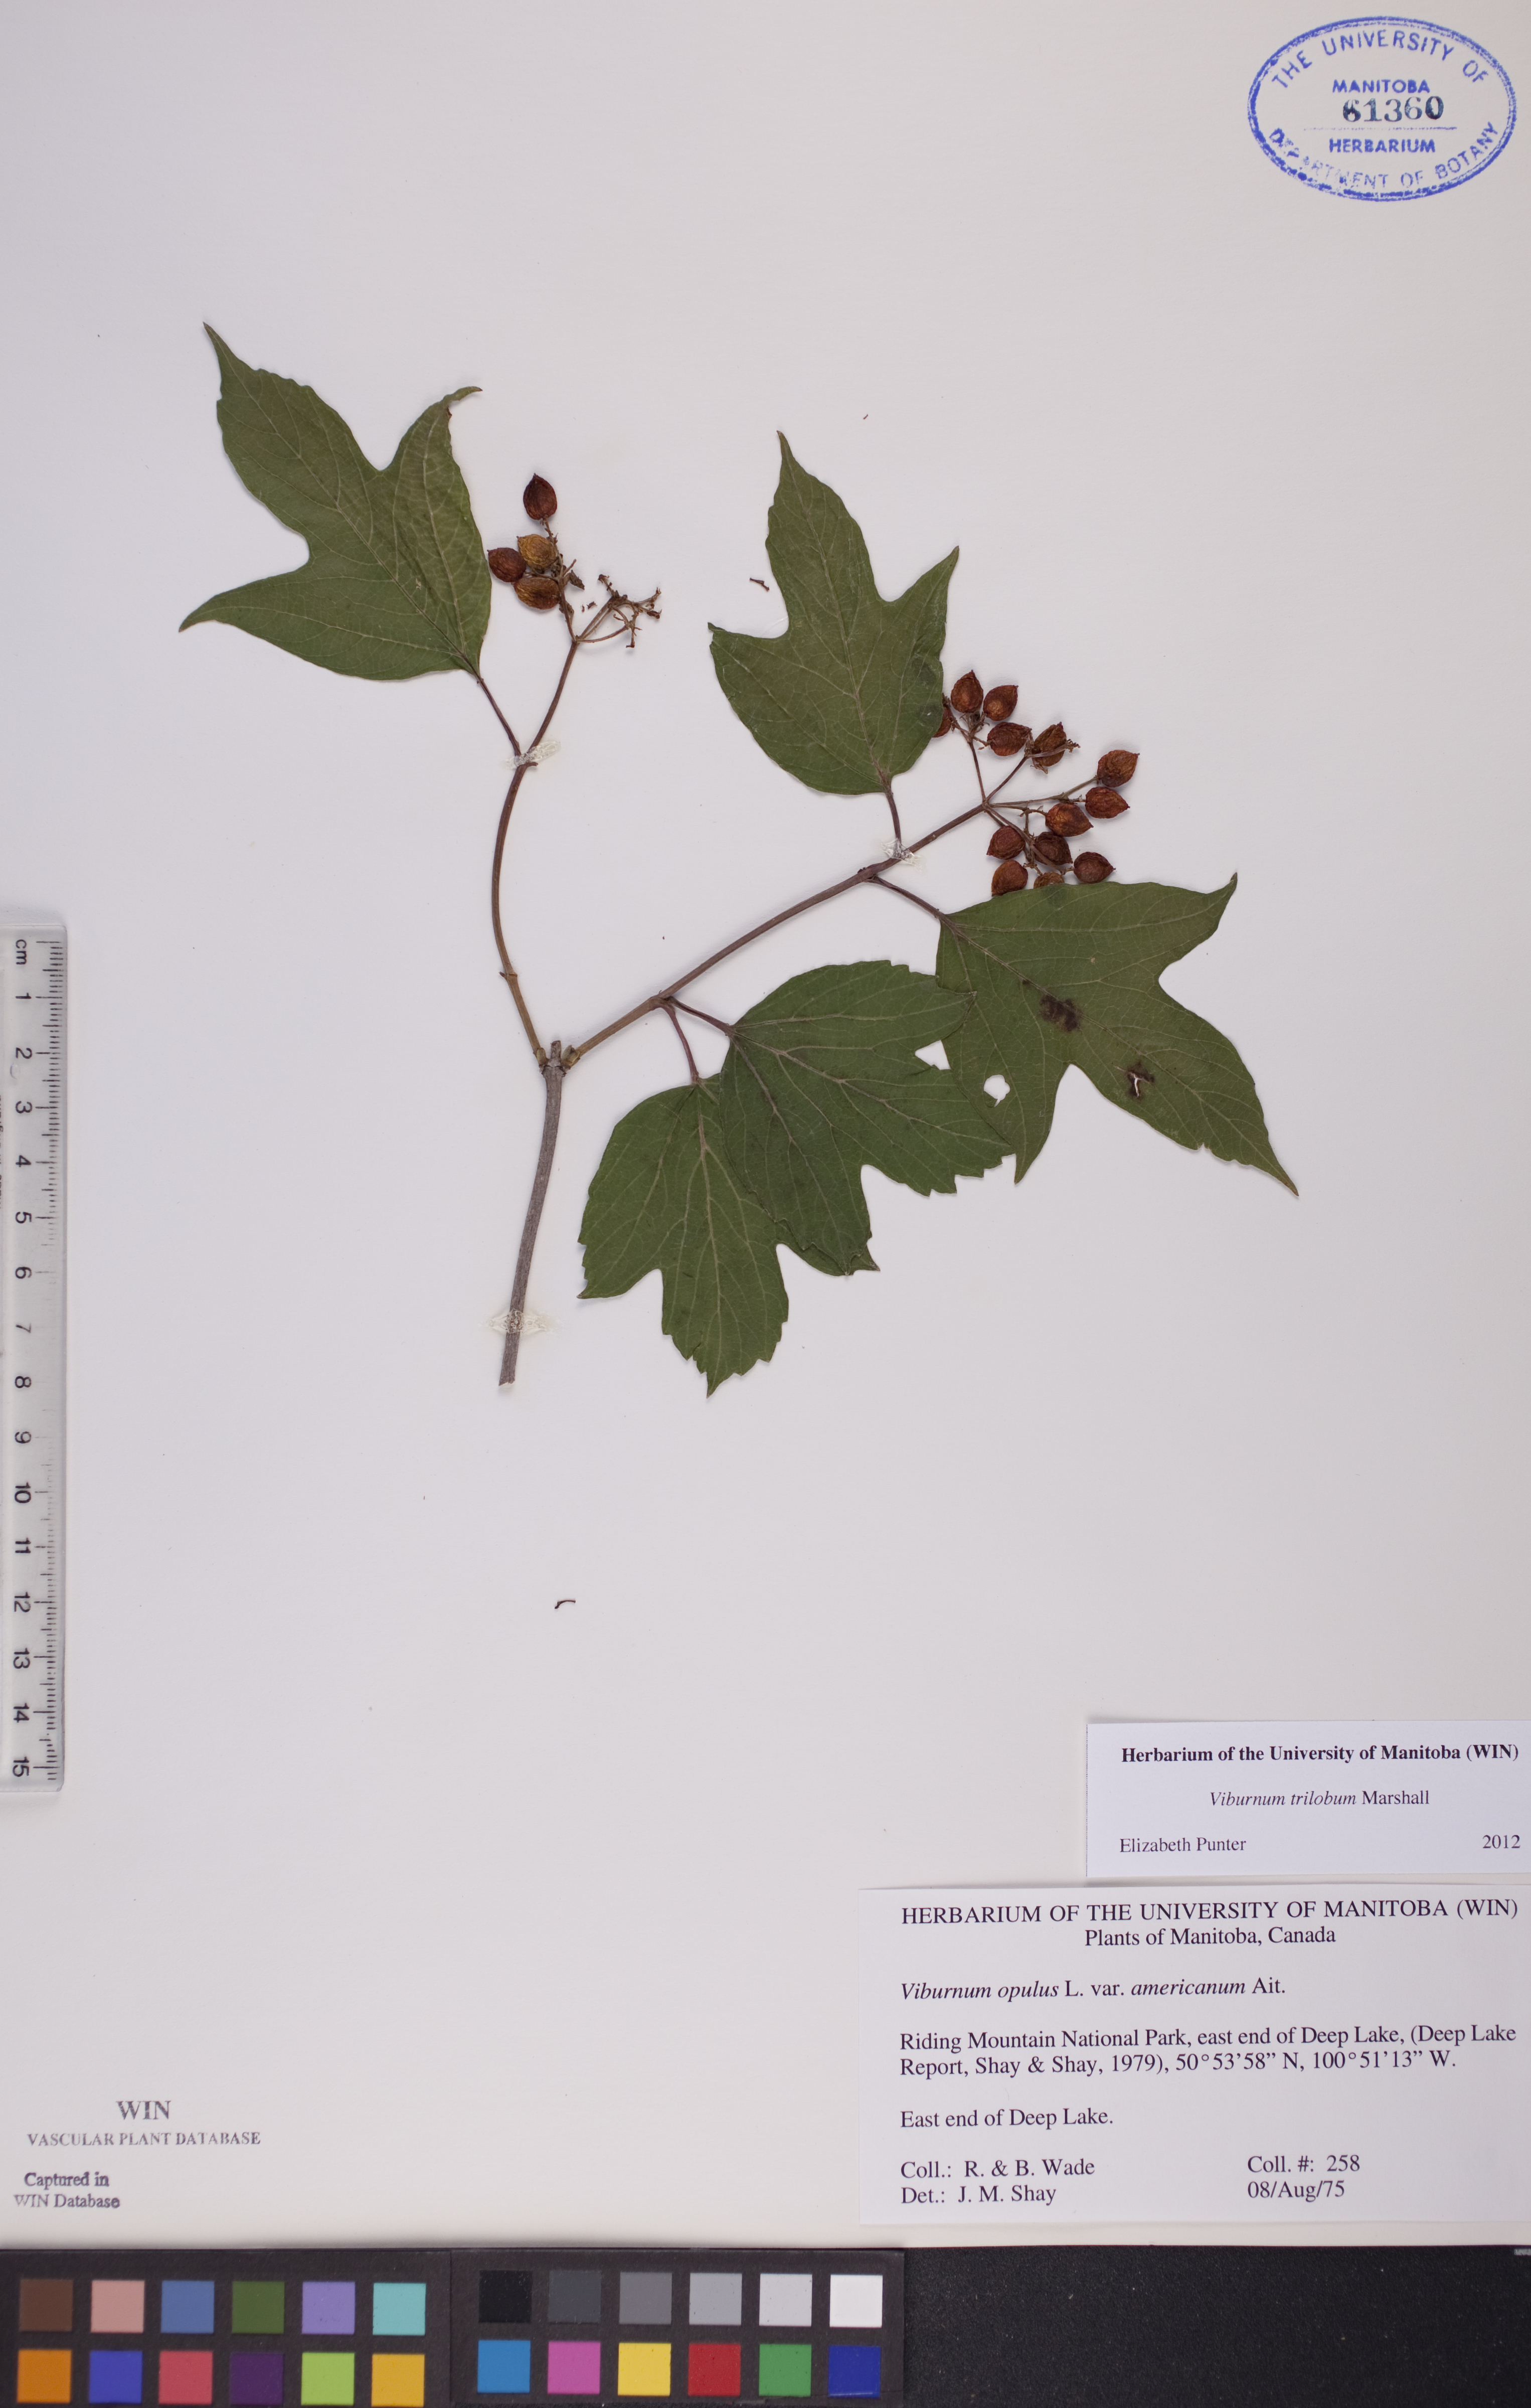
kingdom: Plantae
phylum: Tracheophyta
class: Magnoliopsida
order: Dipsacales
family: Viburnaceae
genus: Viburnum
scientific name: Viburnum trilobum
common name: American cranberrybush
